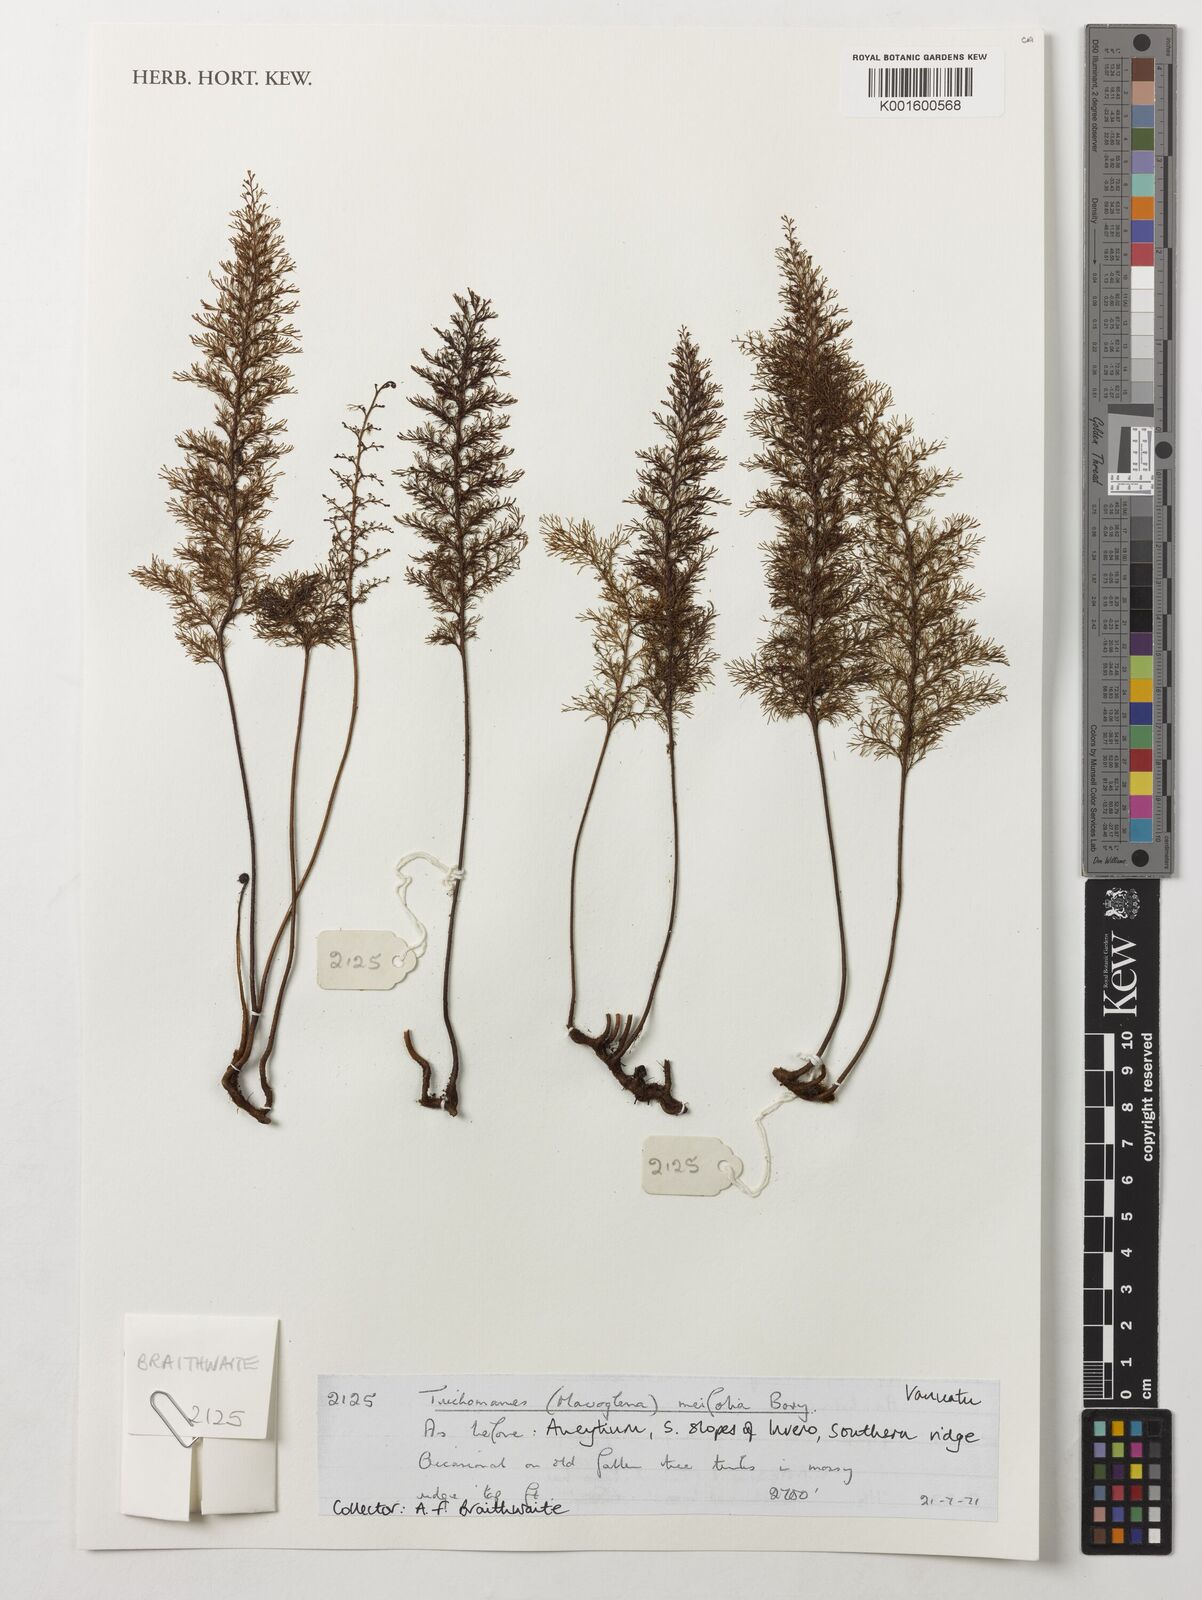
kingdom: Plantae
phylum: Tracheophyta
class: Polypodiopsida
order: Hymenophyllales
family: Hymenophyllaceae
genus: Abrodictyum
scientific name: Abrodictyum parviflorum
